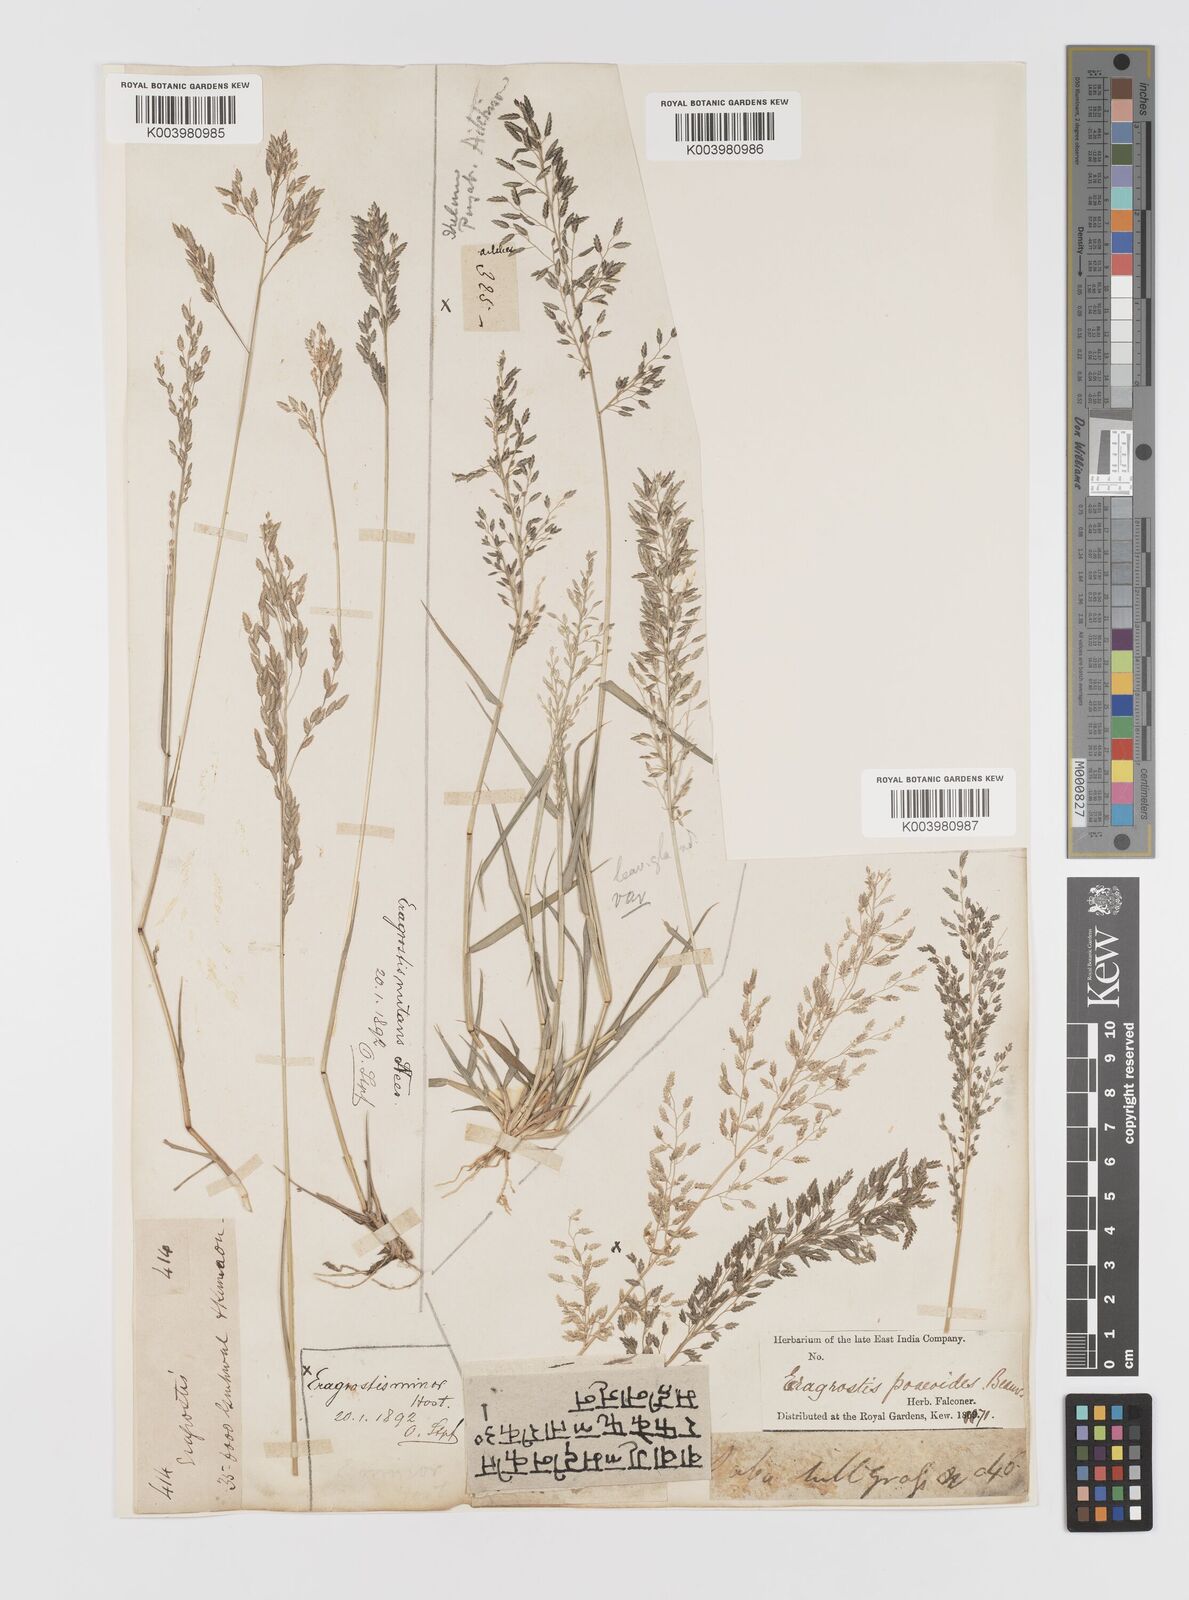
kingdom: Plantae
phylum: Tracheophyta
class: Liliopsida
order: Poales
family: Poaceae
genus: Eragrostis
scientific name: Eragrostis minor
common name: Small love-grass
